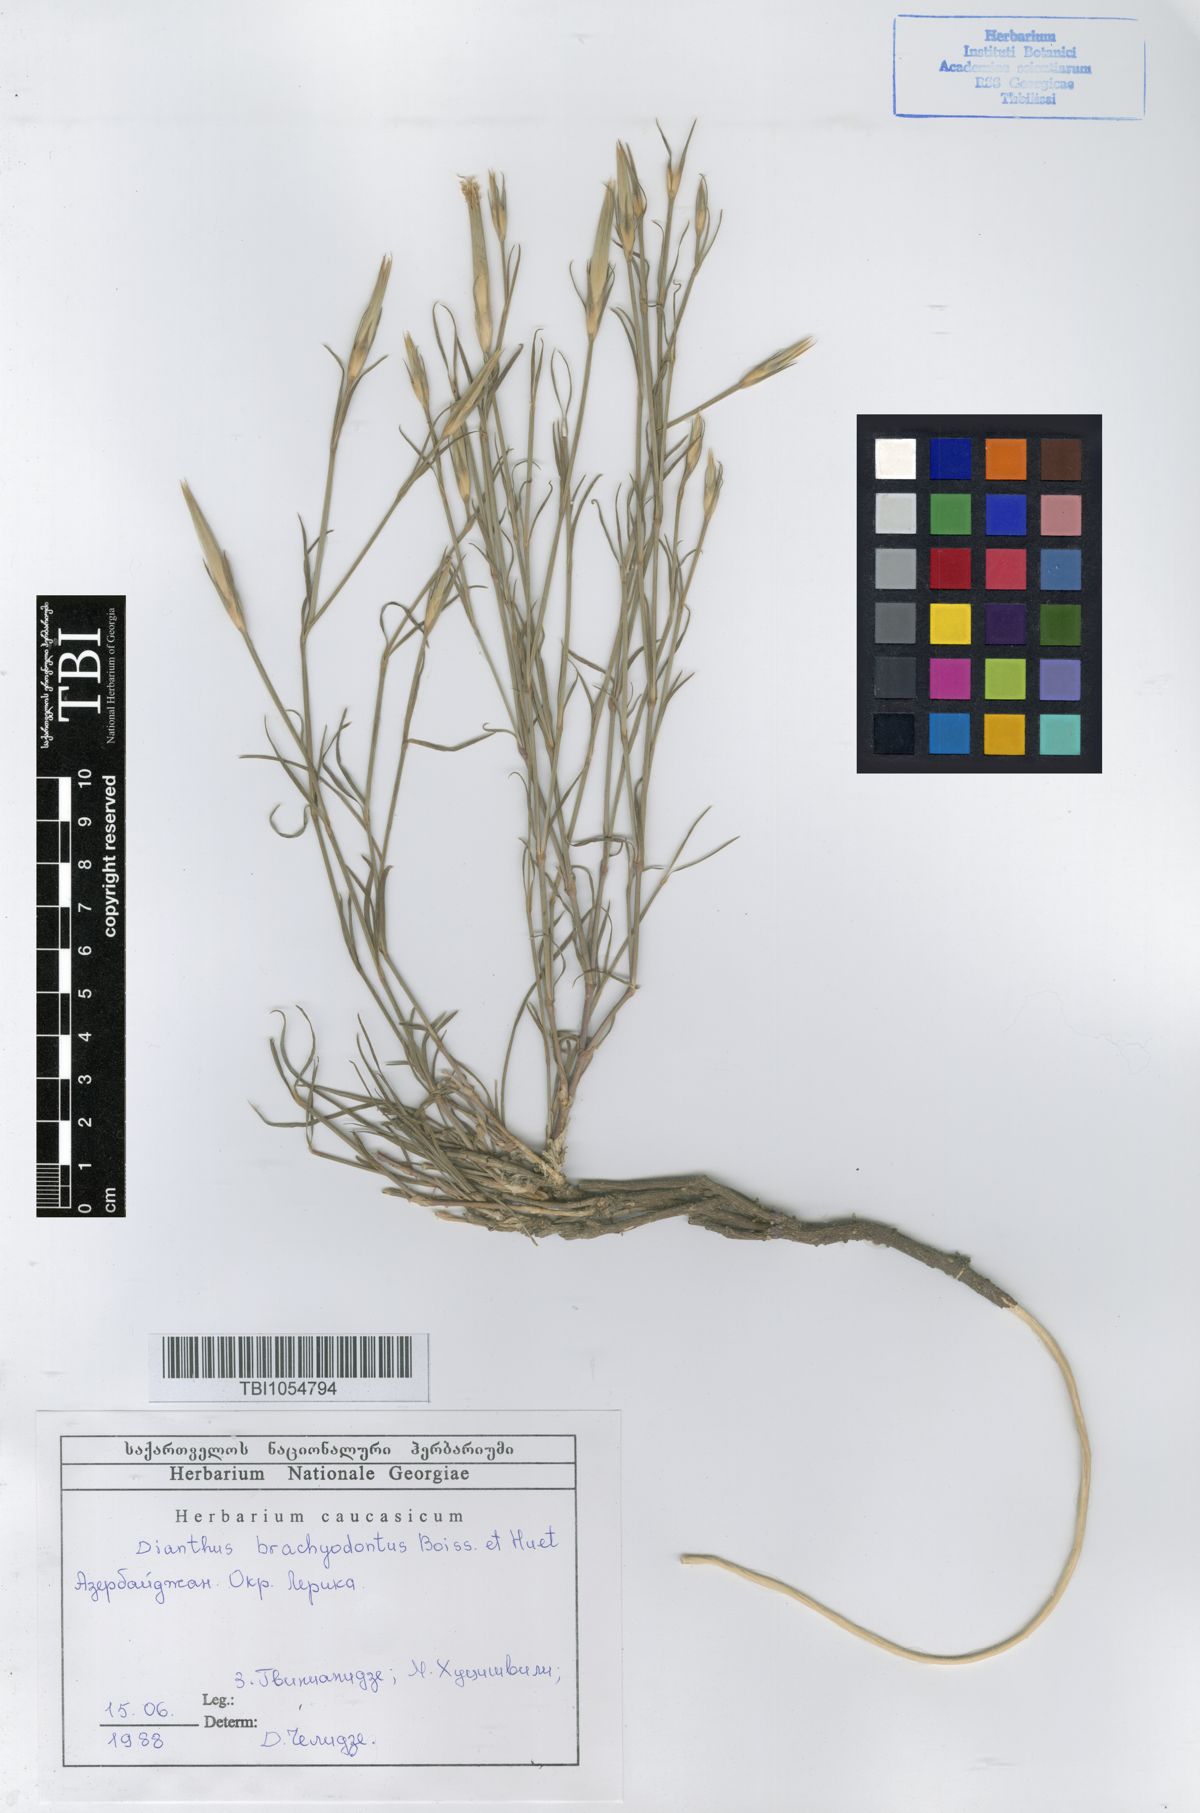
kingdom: Plantae
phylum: Tracheophyta
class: Magnoliopsida
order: Caryophyllales
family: Caryophyllaceae
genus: Dianthus
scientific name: Dianthus
